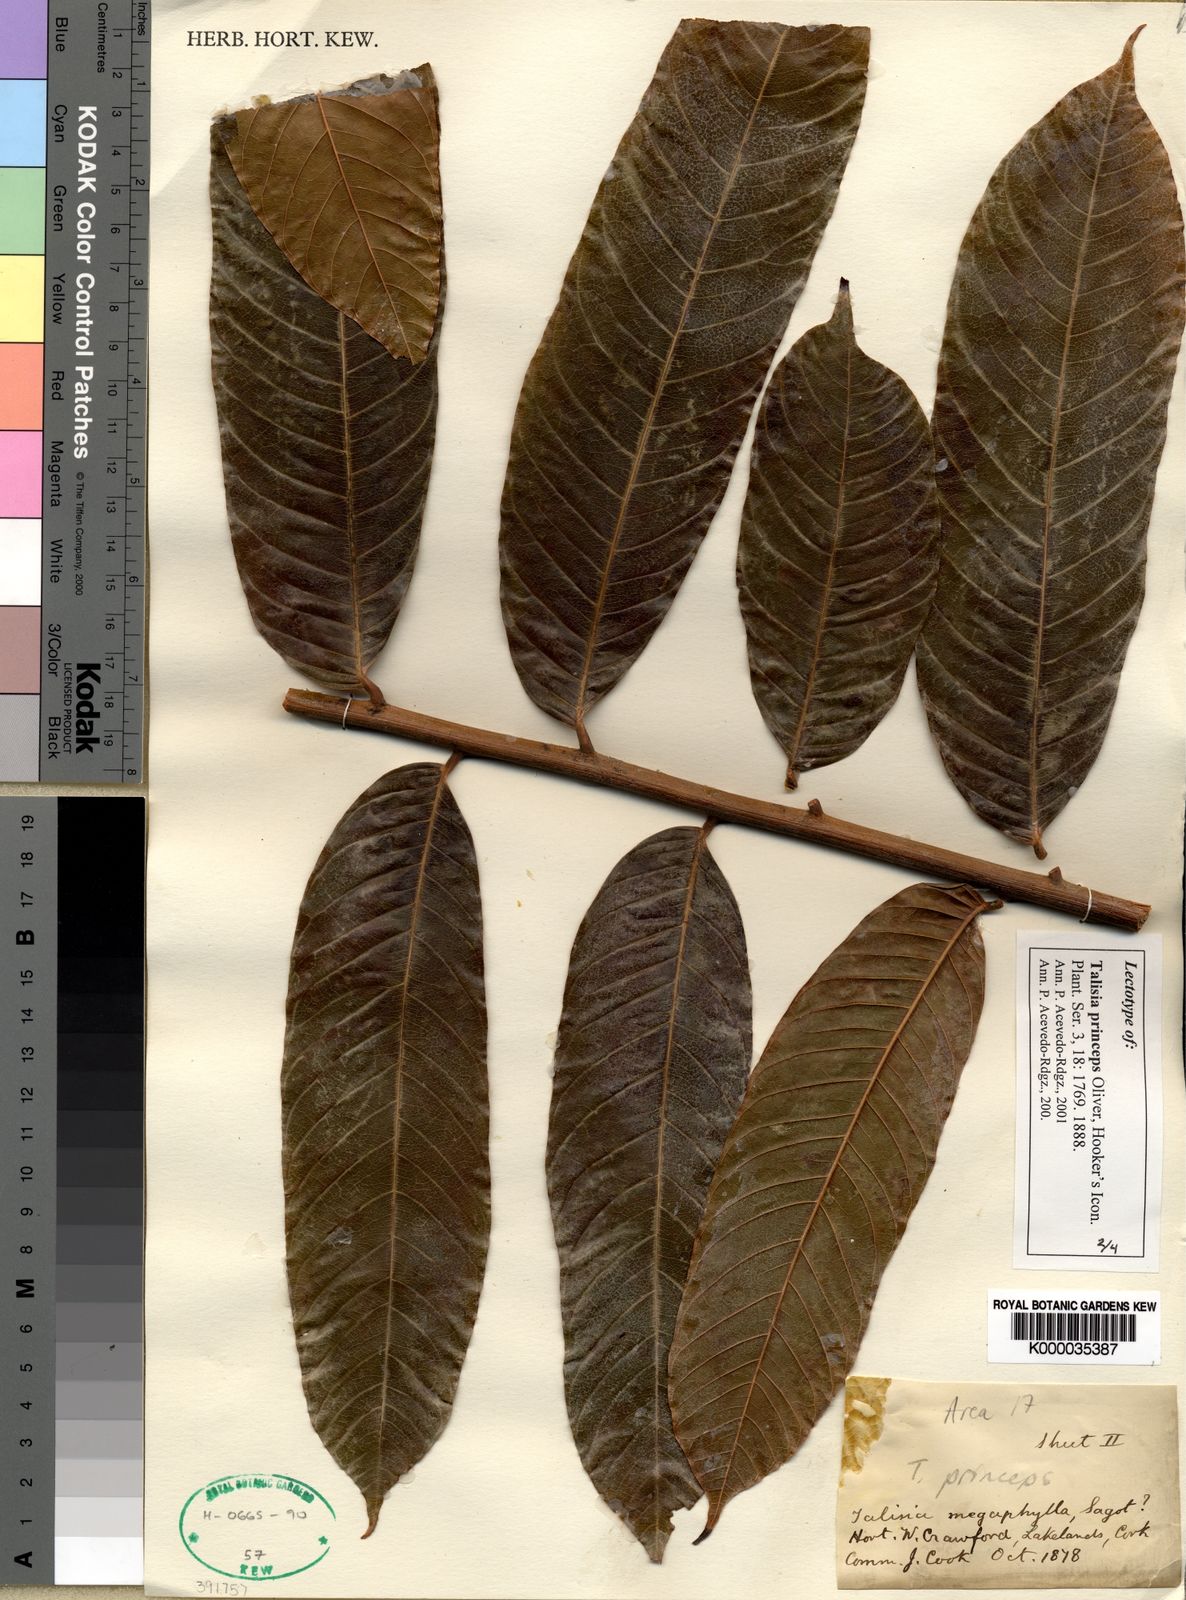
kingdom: Plantae
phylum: Tracheophyta
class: Magnoliopsida
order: Sapindales
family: Sapindaceae
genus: Talisia
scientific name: Talisia princeps
